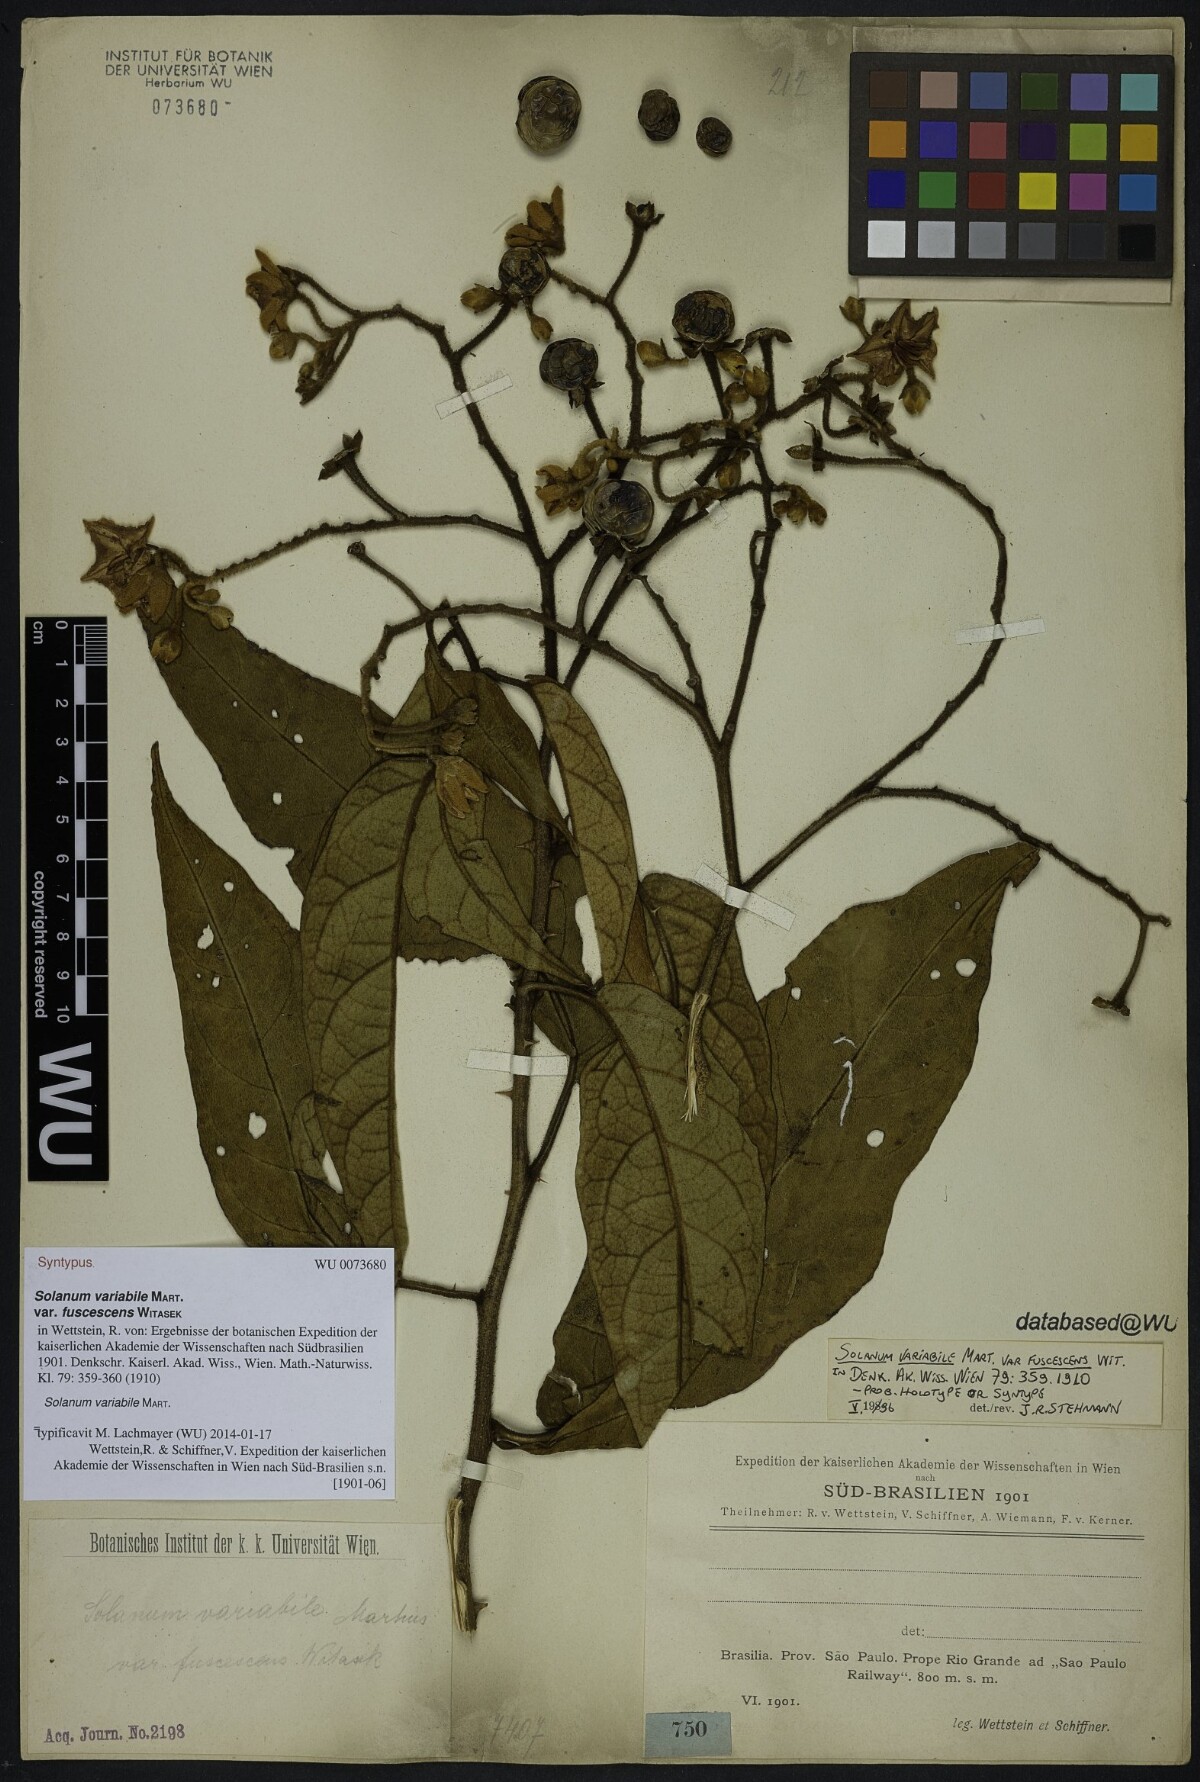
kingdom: Plantae
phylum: Tracheophyta
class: Magnoliopsida
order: Solanales
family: Solanaceae
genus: Solanum
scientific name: Solanum variabile
